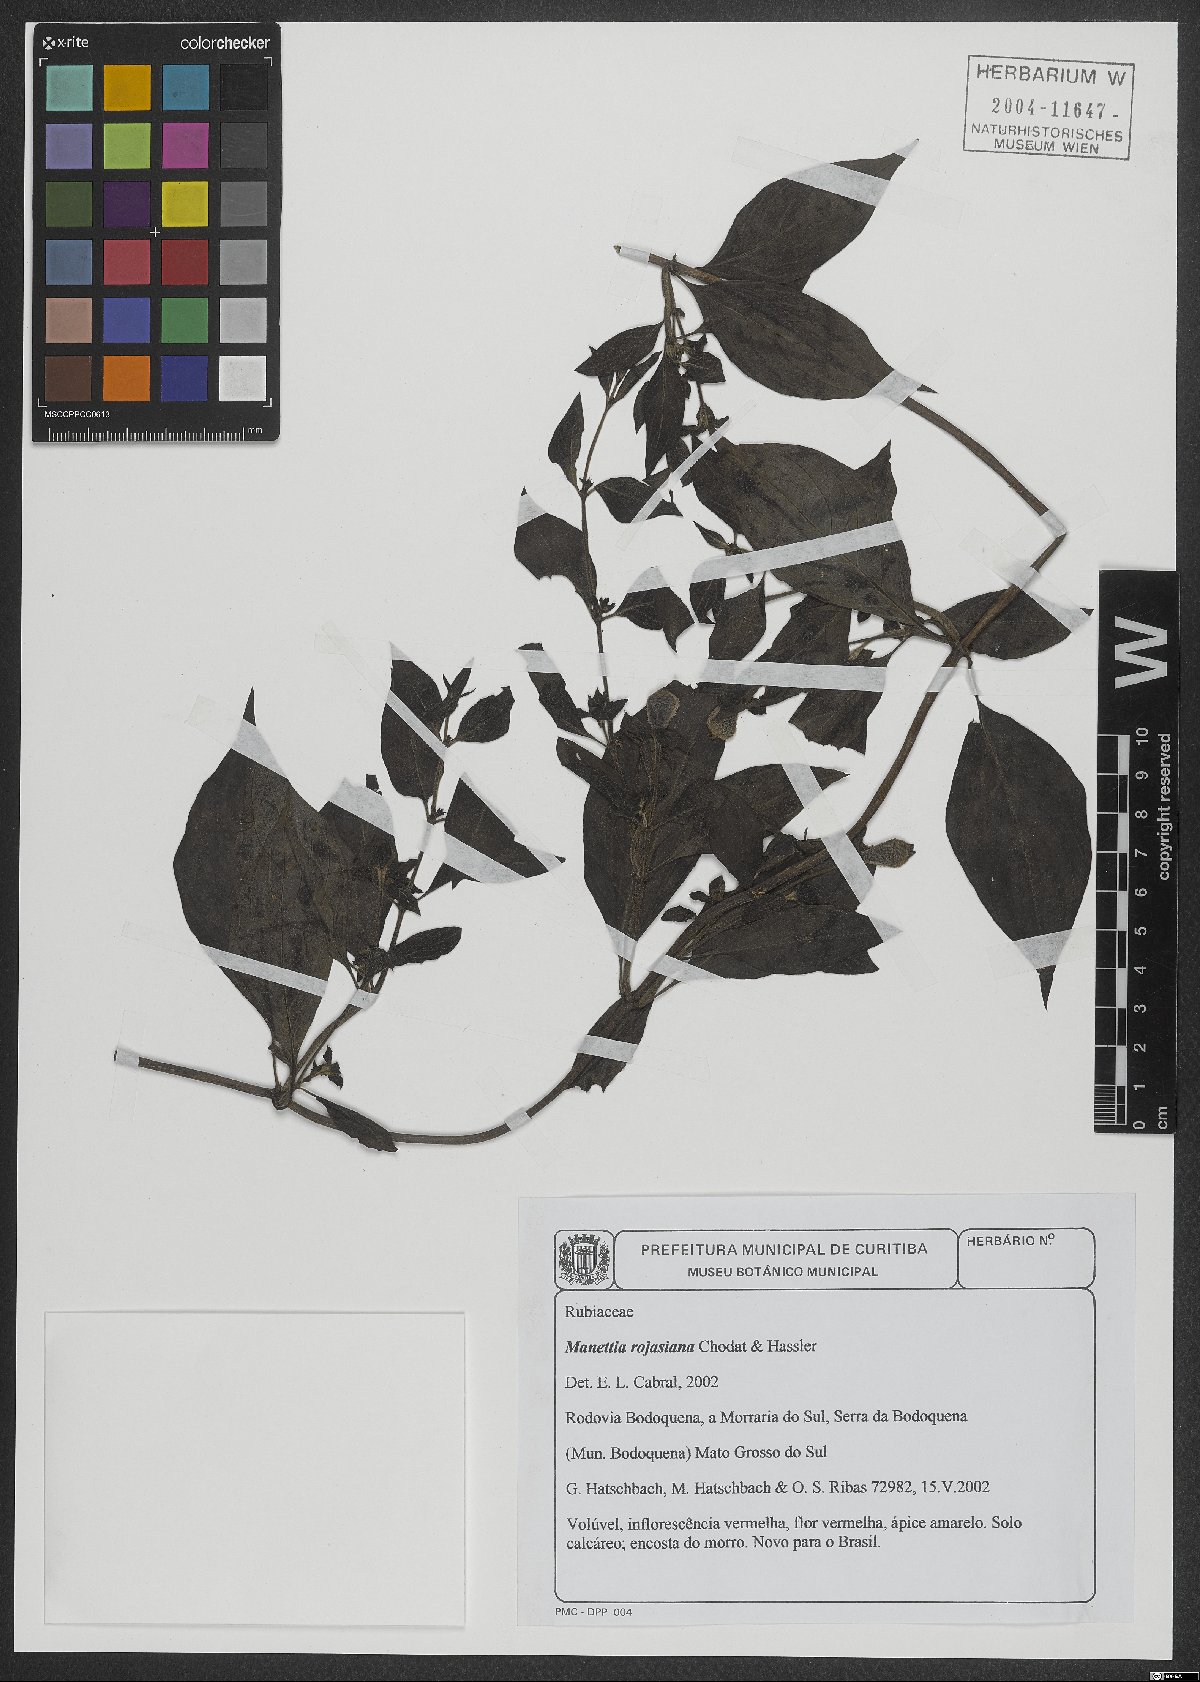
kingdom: Plantae
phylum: Tracheophyta
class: Magnoliopsida
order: Gentianales
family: Rubiaceae
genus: Manettia
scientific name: Manettia rojasiana
